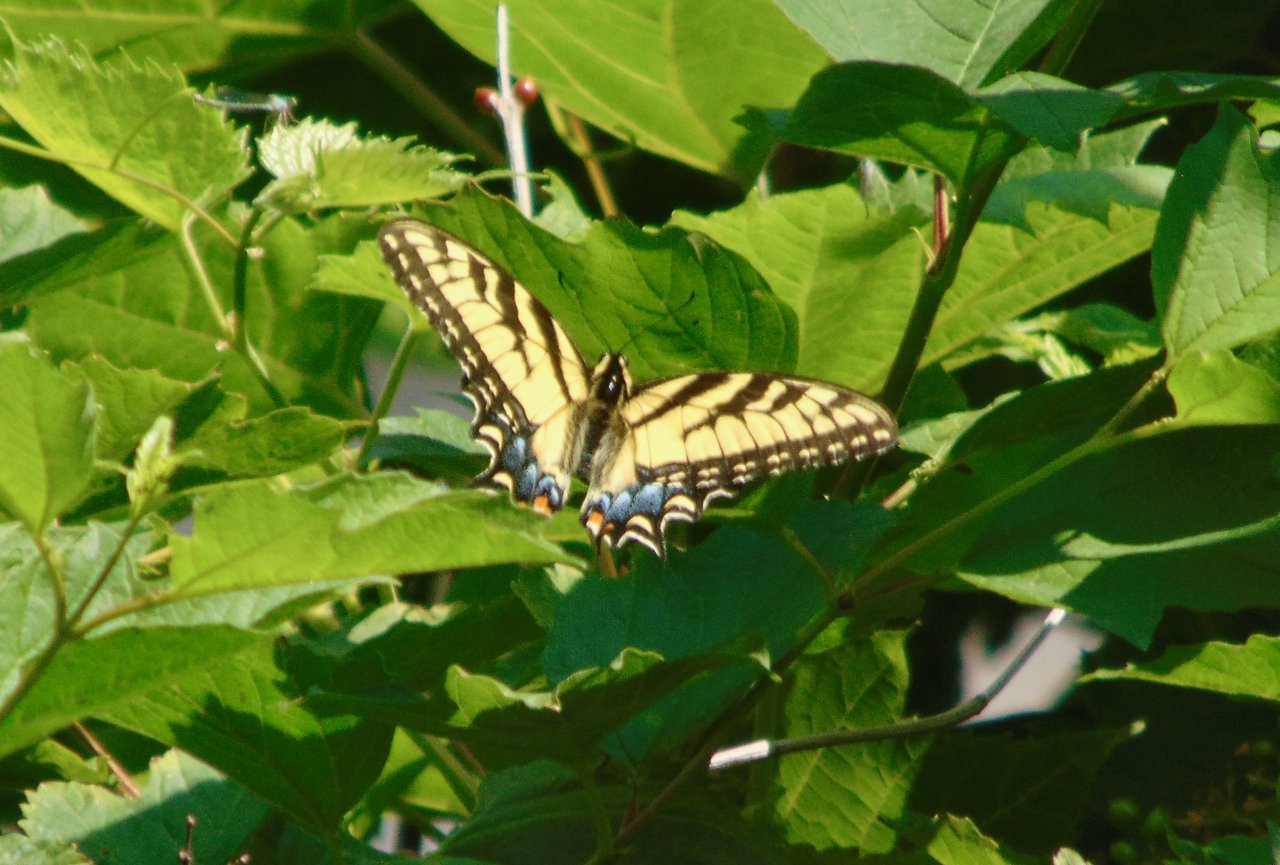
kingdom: Animalia
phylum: Arthropoda
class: Insecta
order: Lepidoptera
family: Papilionidae
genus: Pterourus
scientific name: Pterourus glaucus
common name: Eastern Tiger Swallowtail
